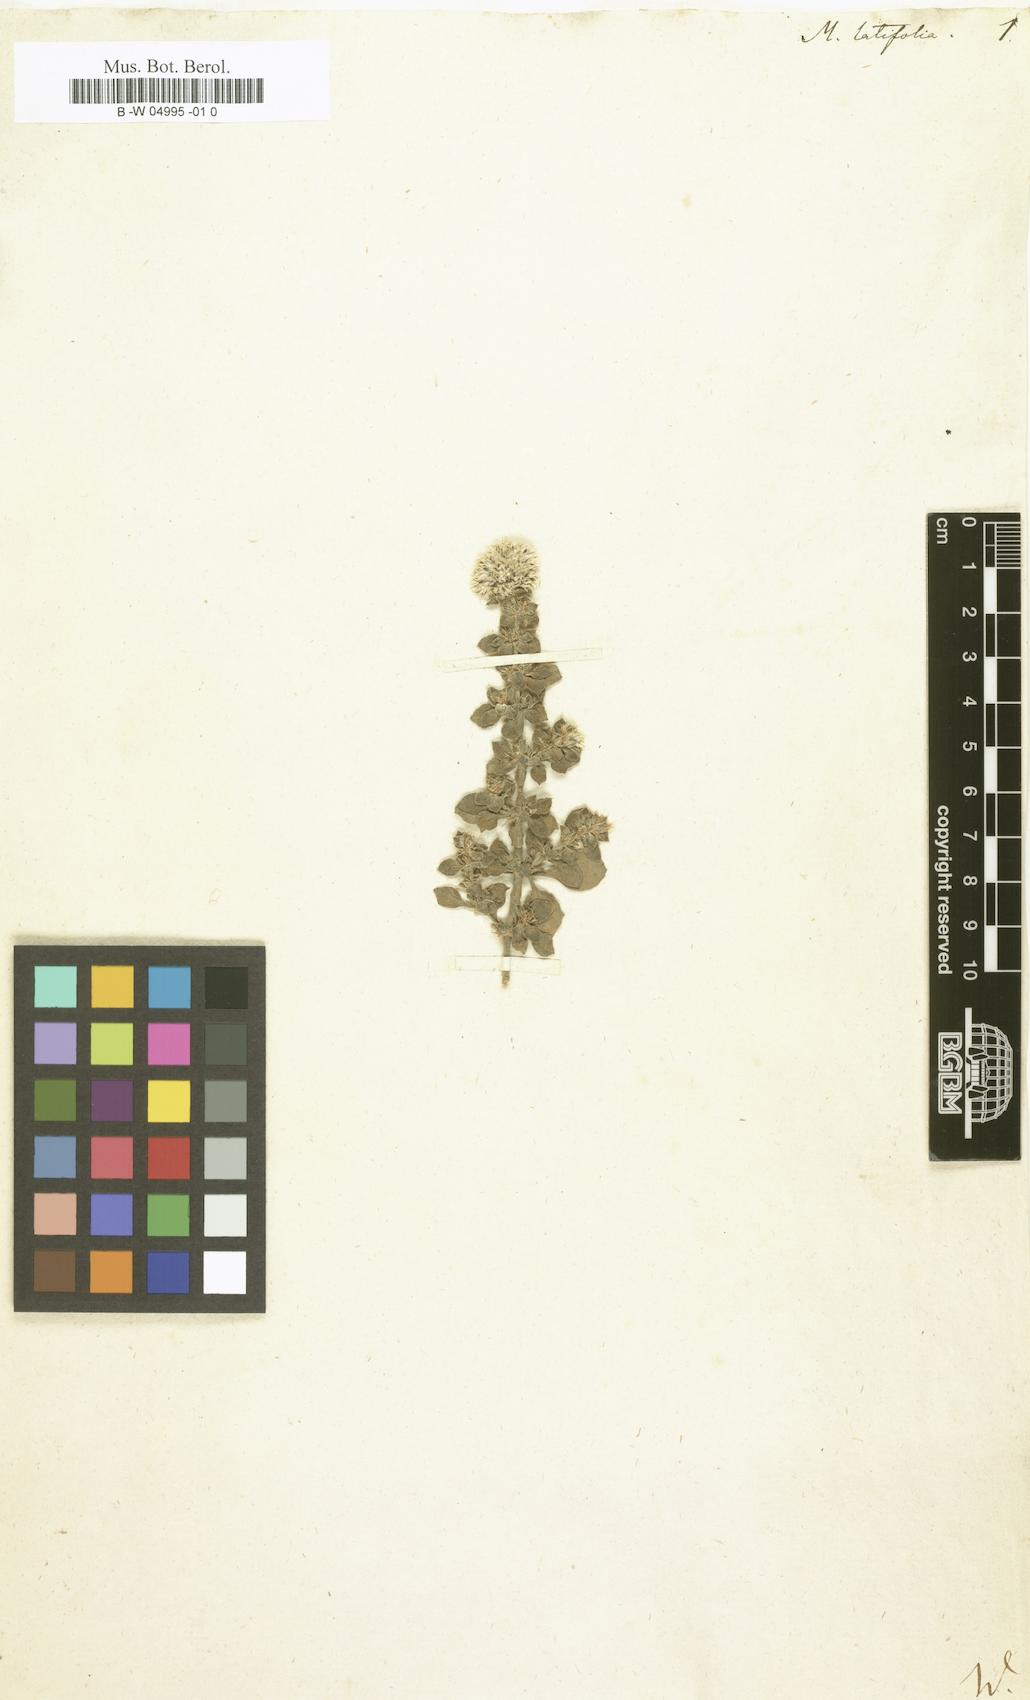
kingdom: Plantae
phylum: Tracheophyta
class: Magnoliopsida
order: Caryophyllales
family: Caryophyllaceae
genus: Polycarpaea
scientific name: Polycarpaea latifolia
